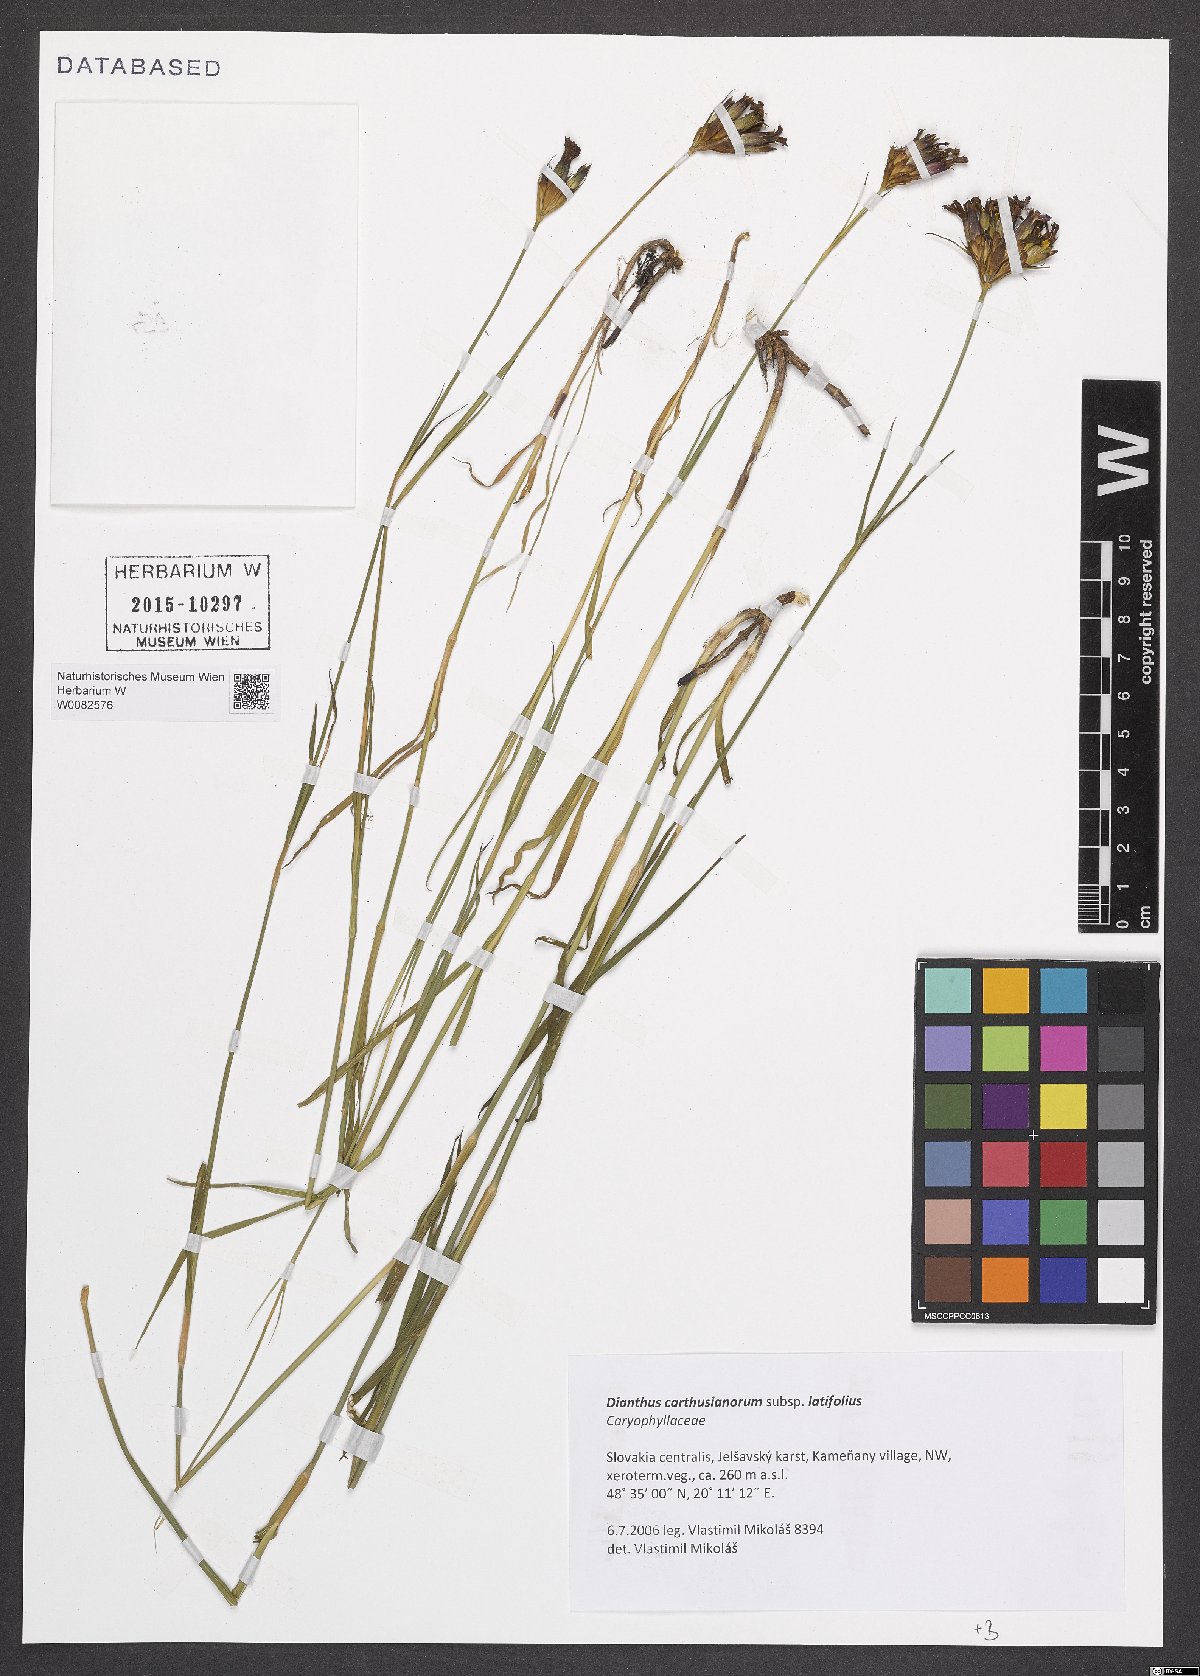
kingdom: Plantae
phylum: Tracheophyta
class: Magnoliopsida
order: Caryophyllales
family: Caryophyllaceae
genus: Dianthus
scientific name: Dianthus carthusianorum
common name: Carthusian pink
